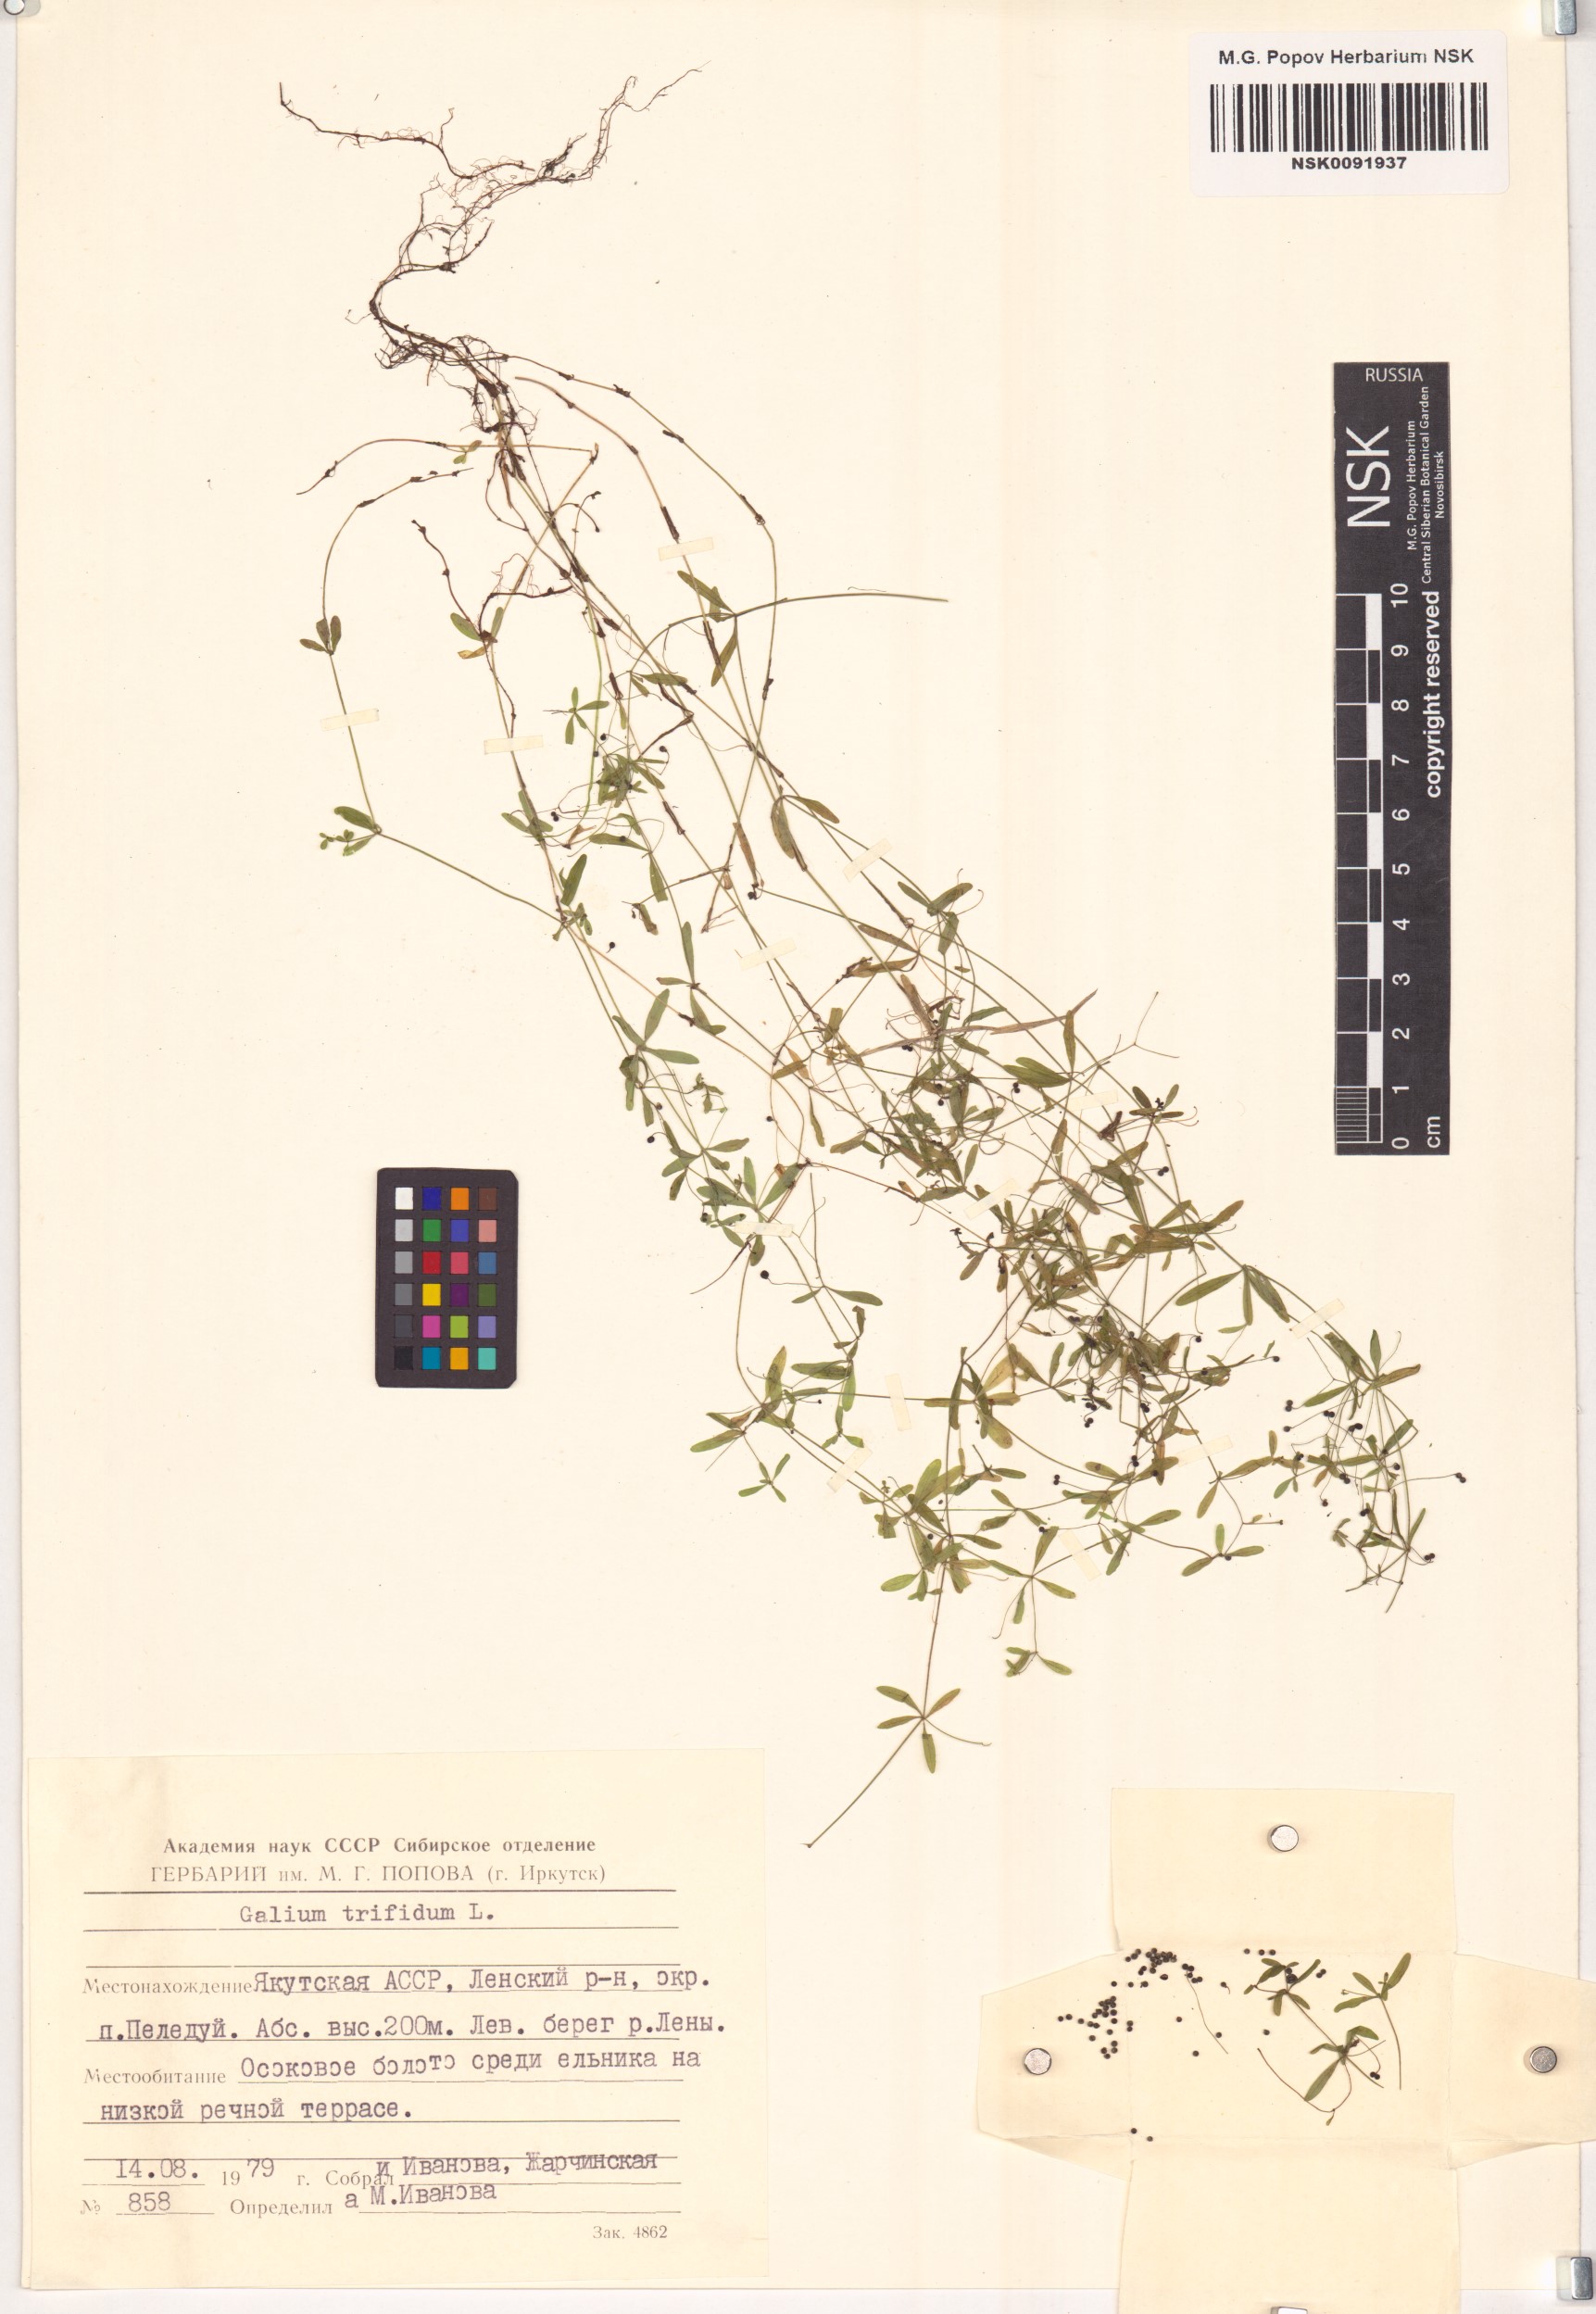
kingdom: Plantae
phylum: Tracheophyta
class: Magnoliopsida
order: Gentianales
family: Rubiaceae
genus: Galium
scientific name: Galium trifidum
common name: Small bedstraw
